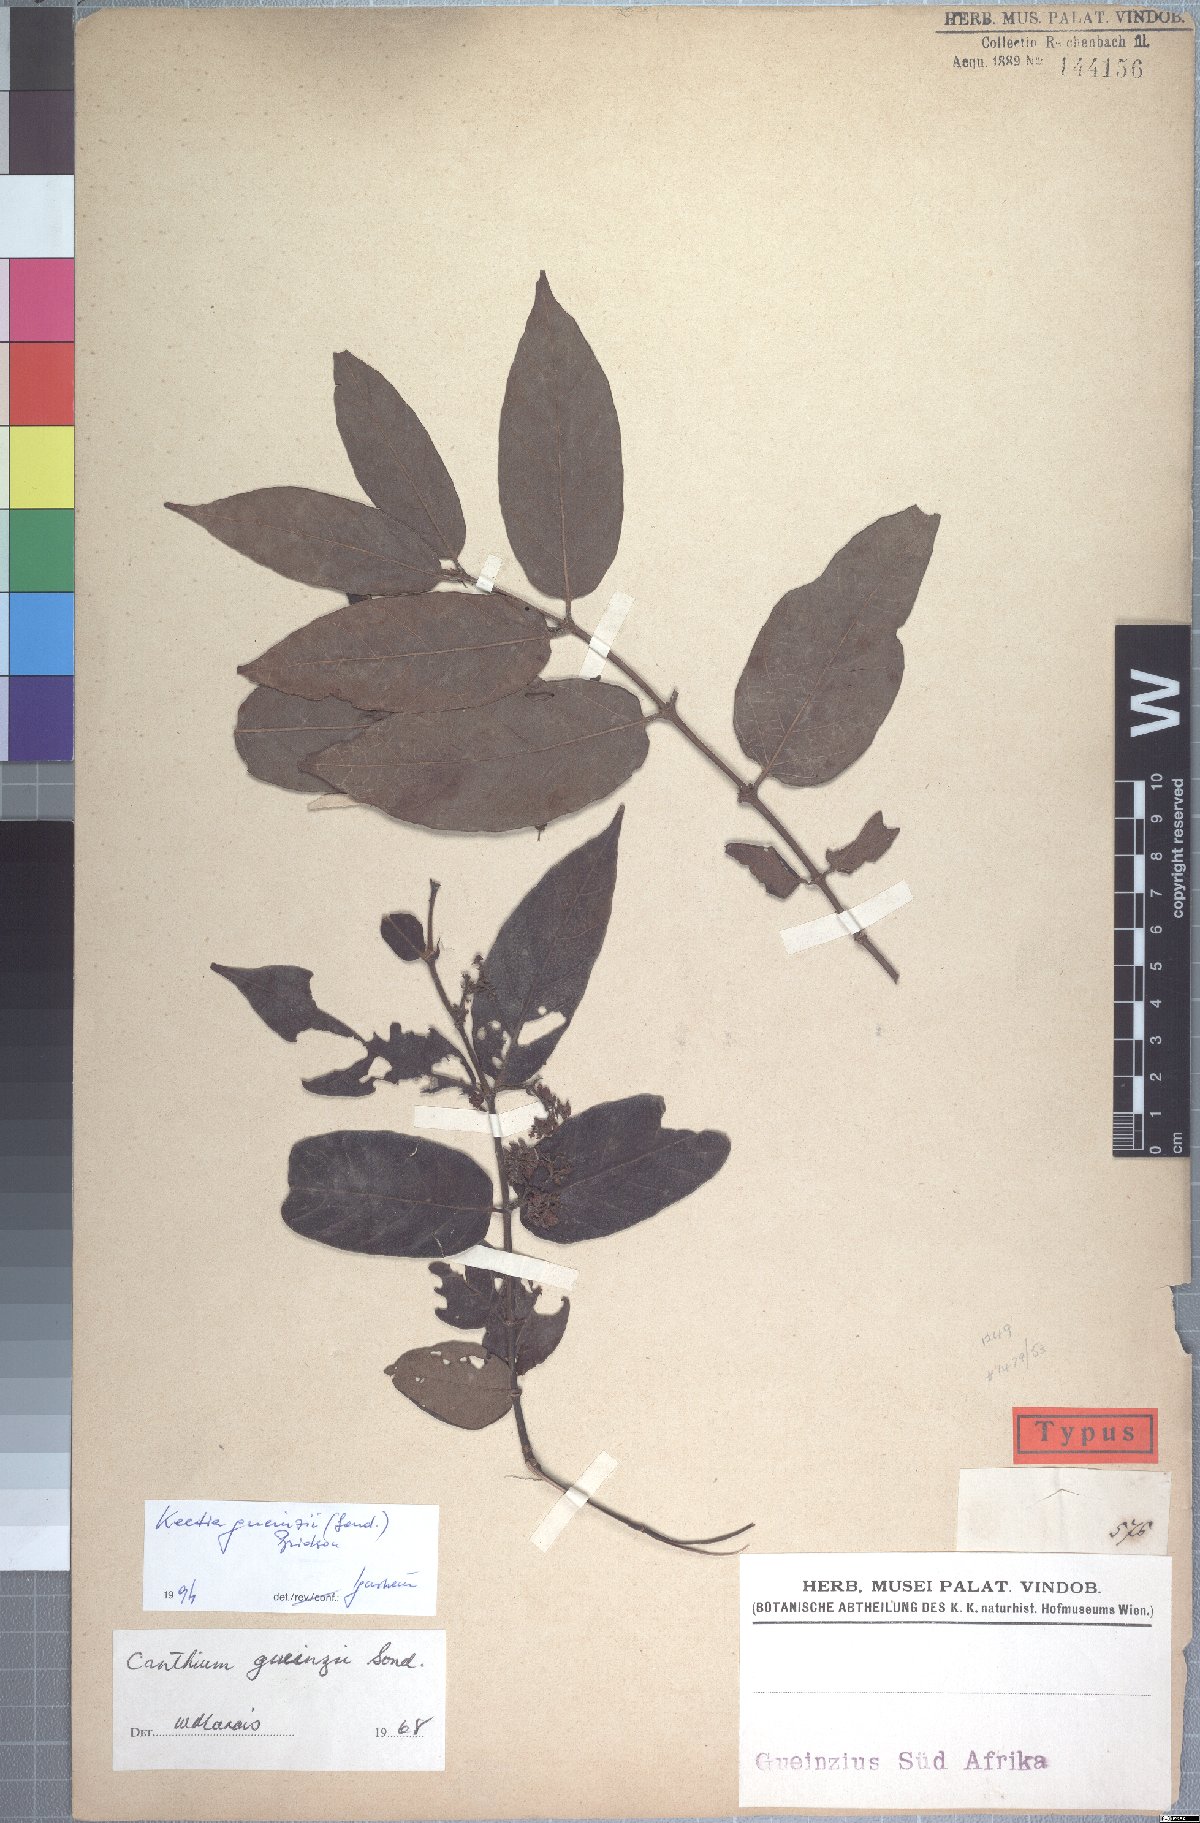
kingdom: Plantae
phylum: Tracheophyta
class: Magnoliopsida
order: Gentianales
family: Rubiaceae
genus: Keetia
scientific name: Keetia gueinzii
